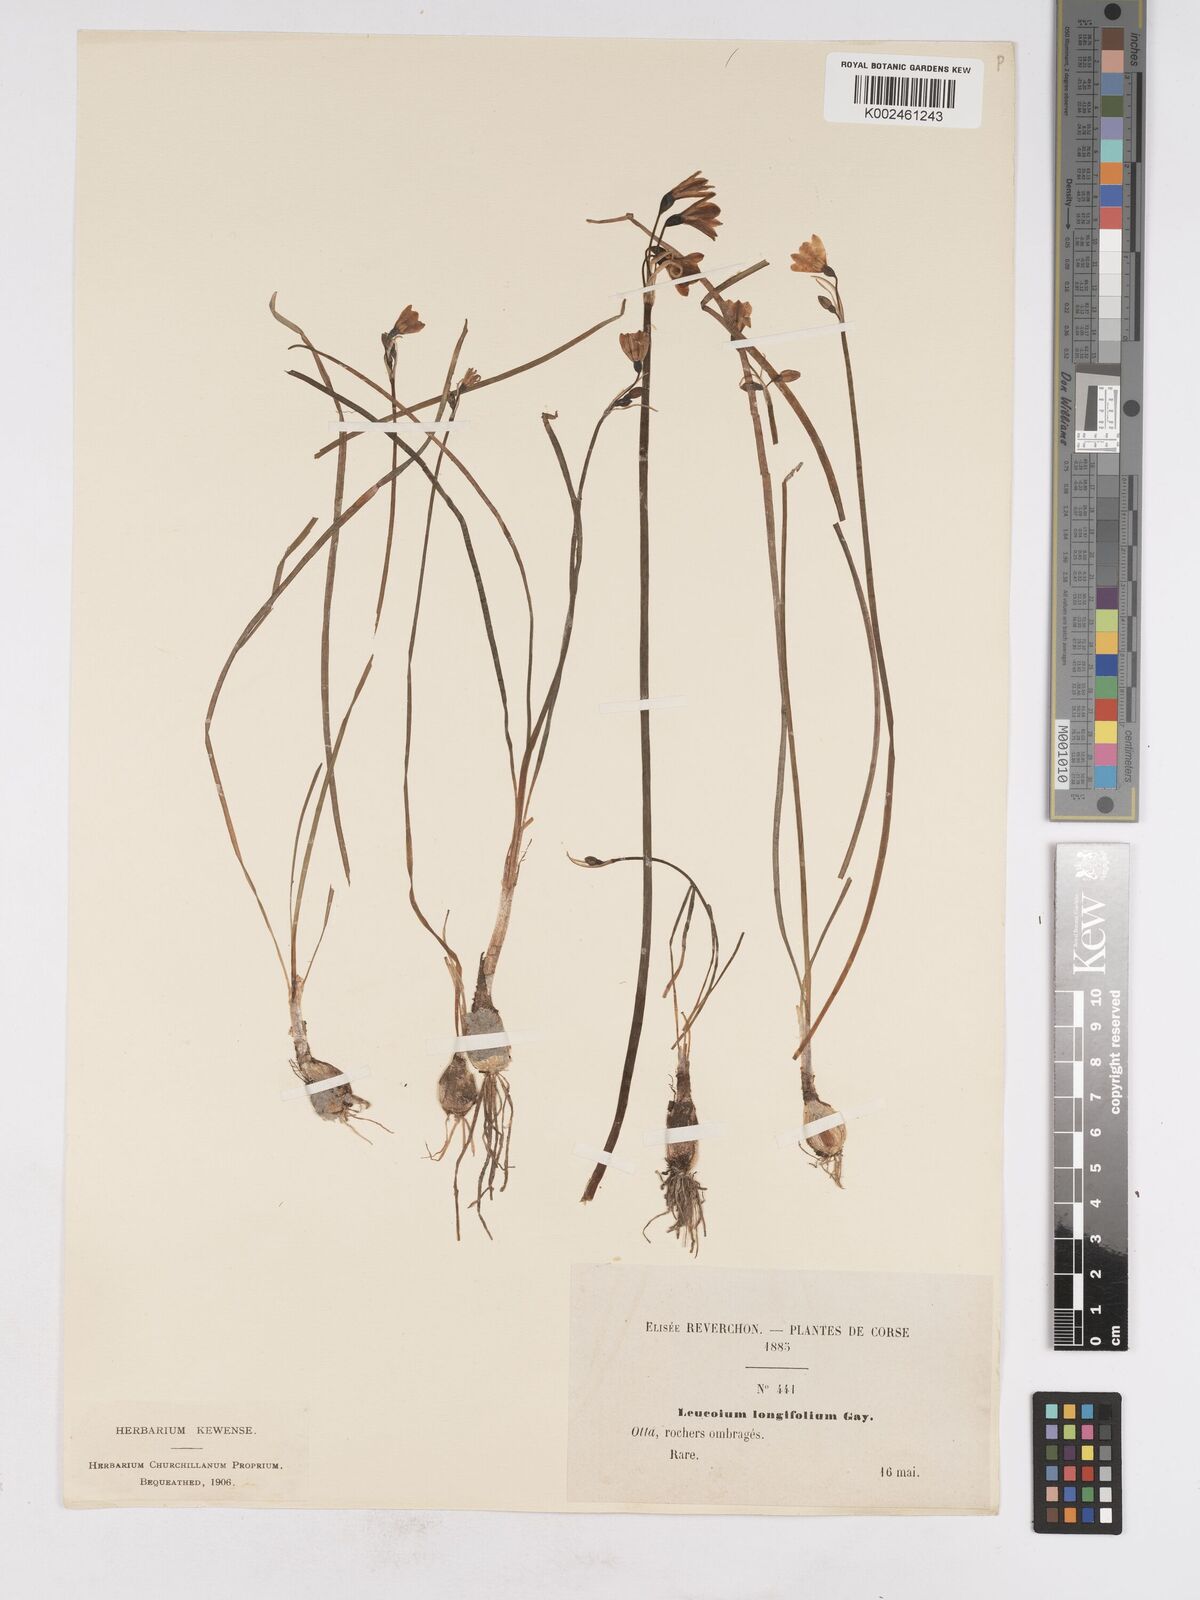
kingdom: Plantae
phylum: Tracheophyta
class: Liliopsida
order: Asparagales
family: Amaryllidaceae
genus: Acis
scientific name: Acis longifolia
